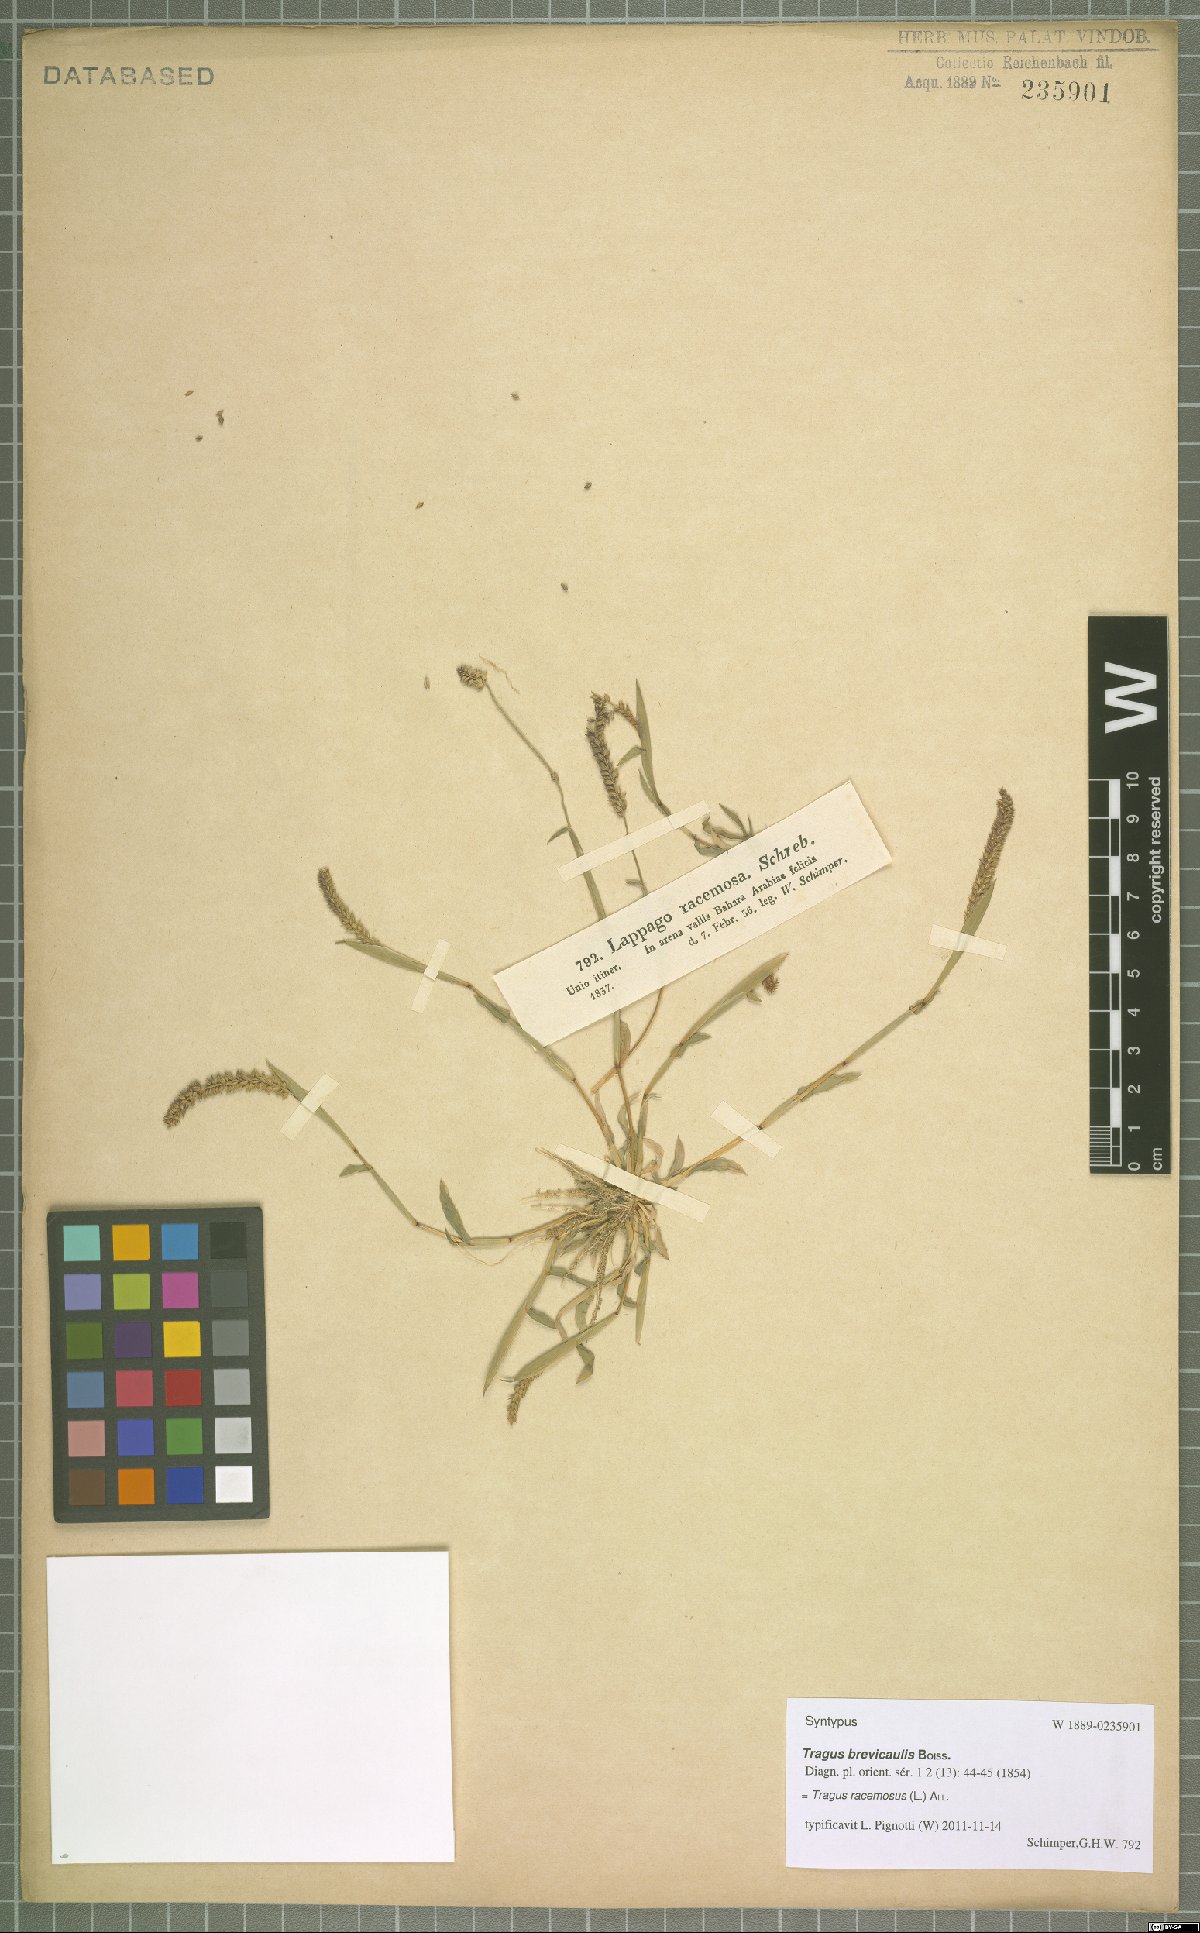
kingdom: Plantae
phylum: Tracheophyta
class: Liliopsida
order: Poales
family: Poaceae
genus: Tragus
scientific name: Tragus racemosus
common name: European bur-grass
